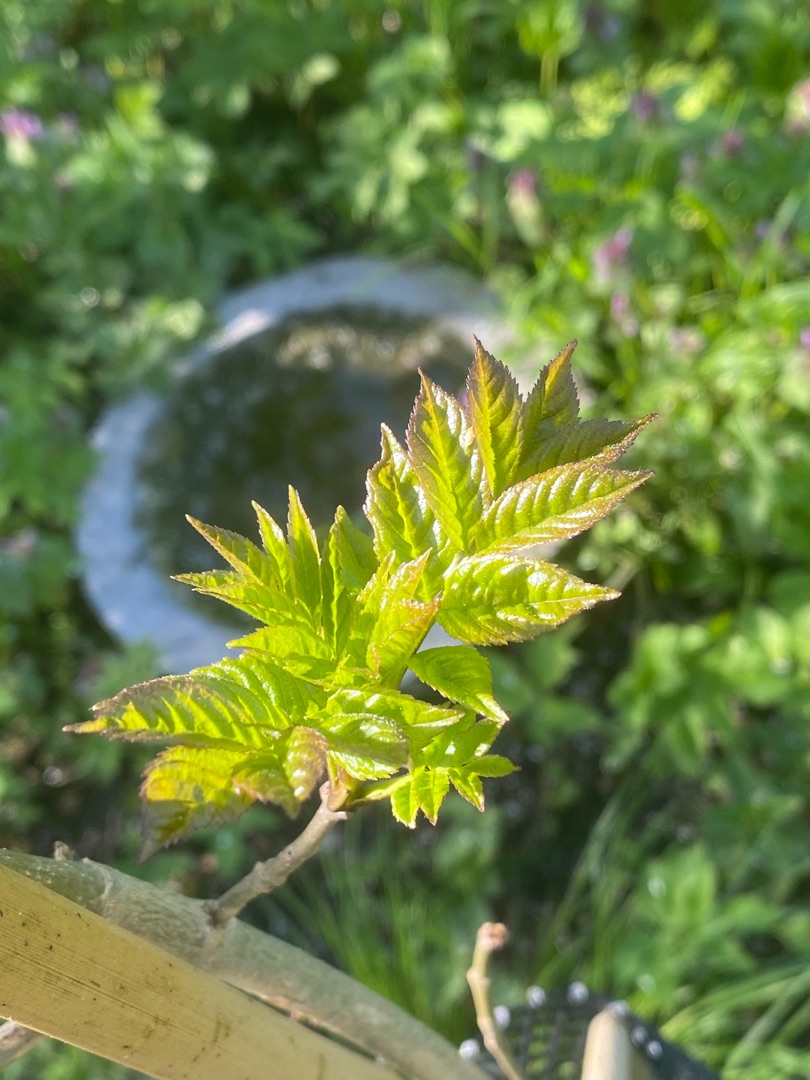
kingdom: Plantae
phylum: Tracheophyta
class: Magnoliopsida
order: Lamiales
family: Oleaceae
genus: Fraxinus
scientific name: Fraxinus excelsior
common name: Ask
